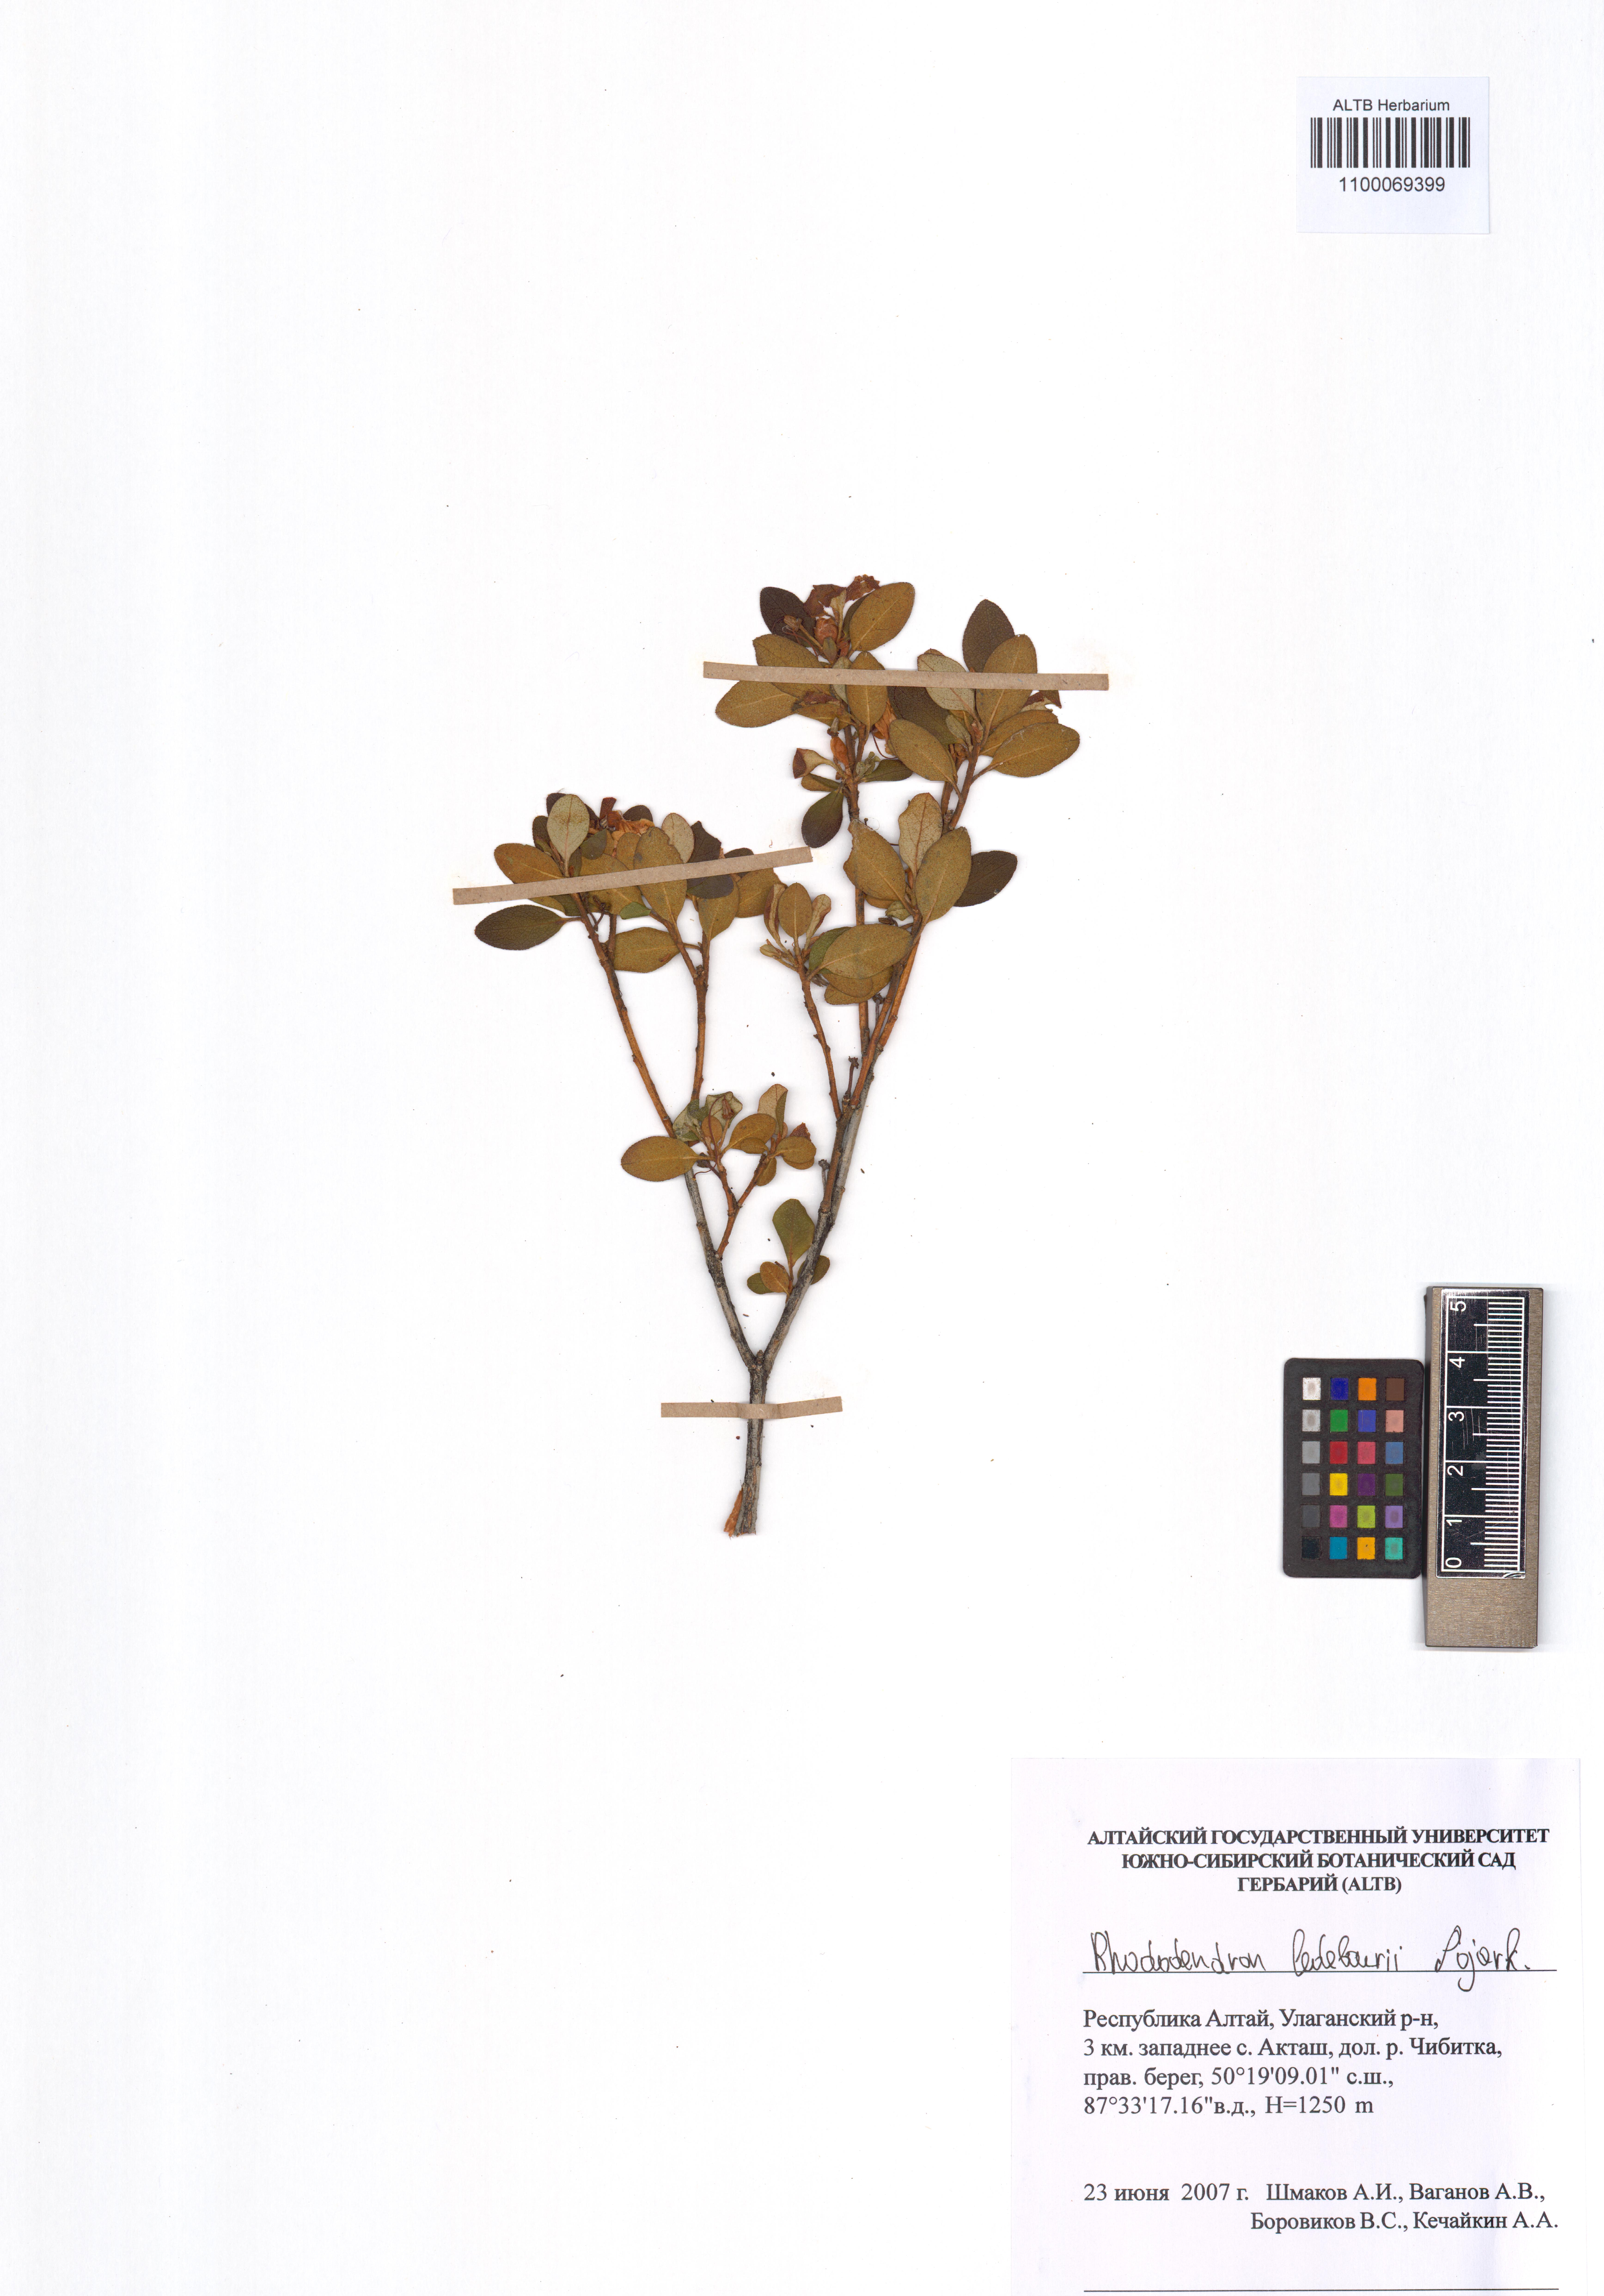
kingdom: Plantae
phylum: Tracheophyta
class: Magnoliopsida
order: Ericales
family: Ericaceae
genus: Rhododendron
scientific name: Rhododendron dauricum
